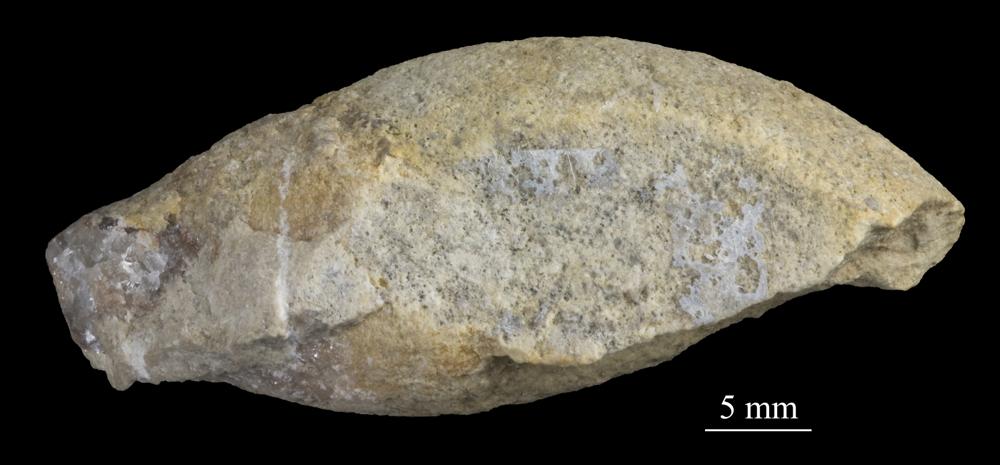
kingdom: Animalia
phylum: Mollusca
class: Gastropoda
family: Subulitidae
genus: Subulites
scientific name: Subulites amphora
